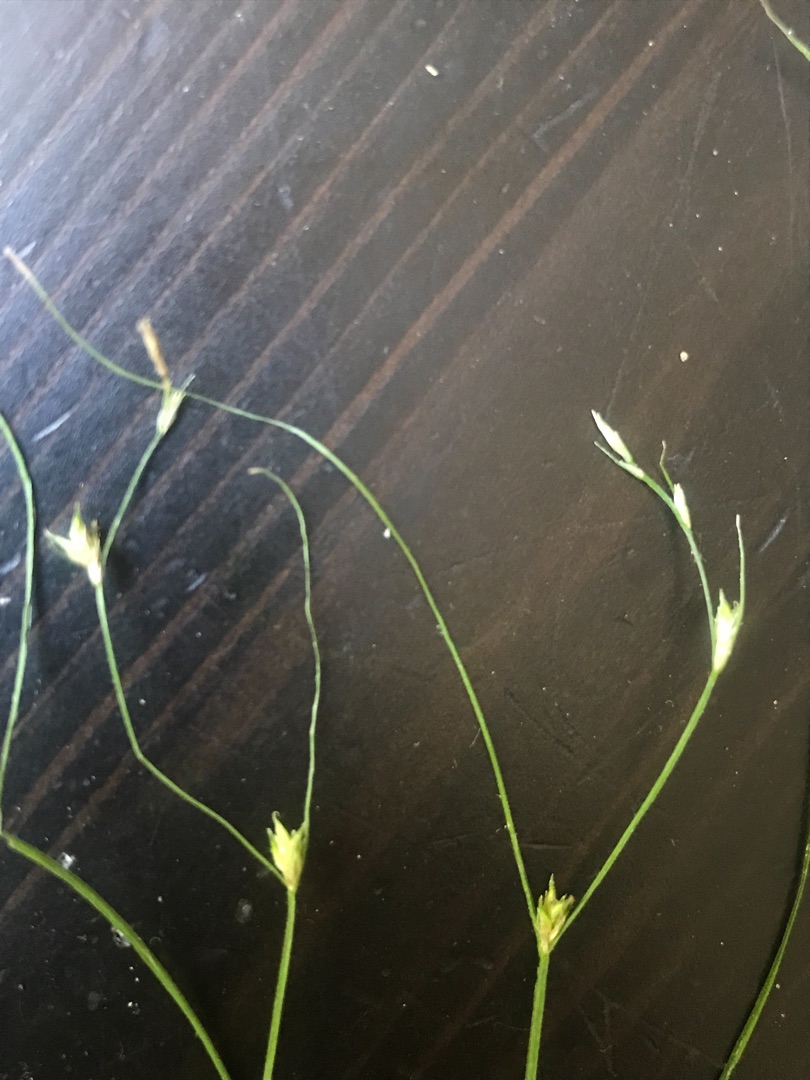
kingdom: Plantae
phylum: Tracheophyta
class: Liliopsida
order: Poales
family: Cyperaceae
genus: Carex
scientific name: Carex remota
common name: Akselblomstret star
